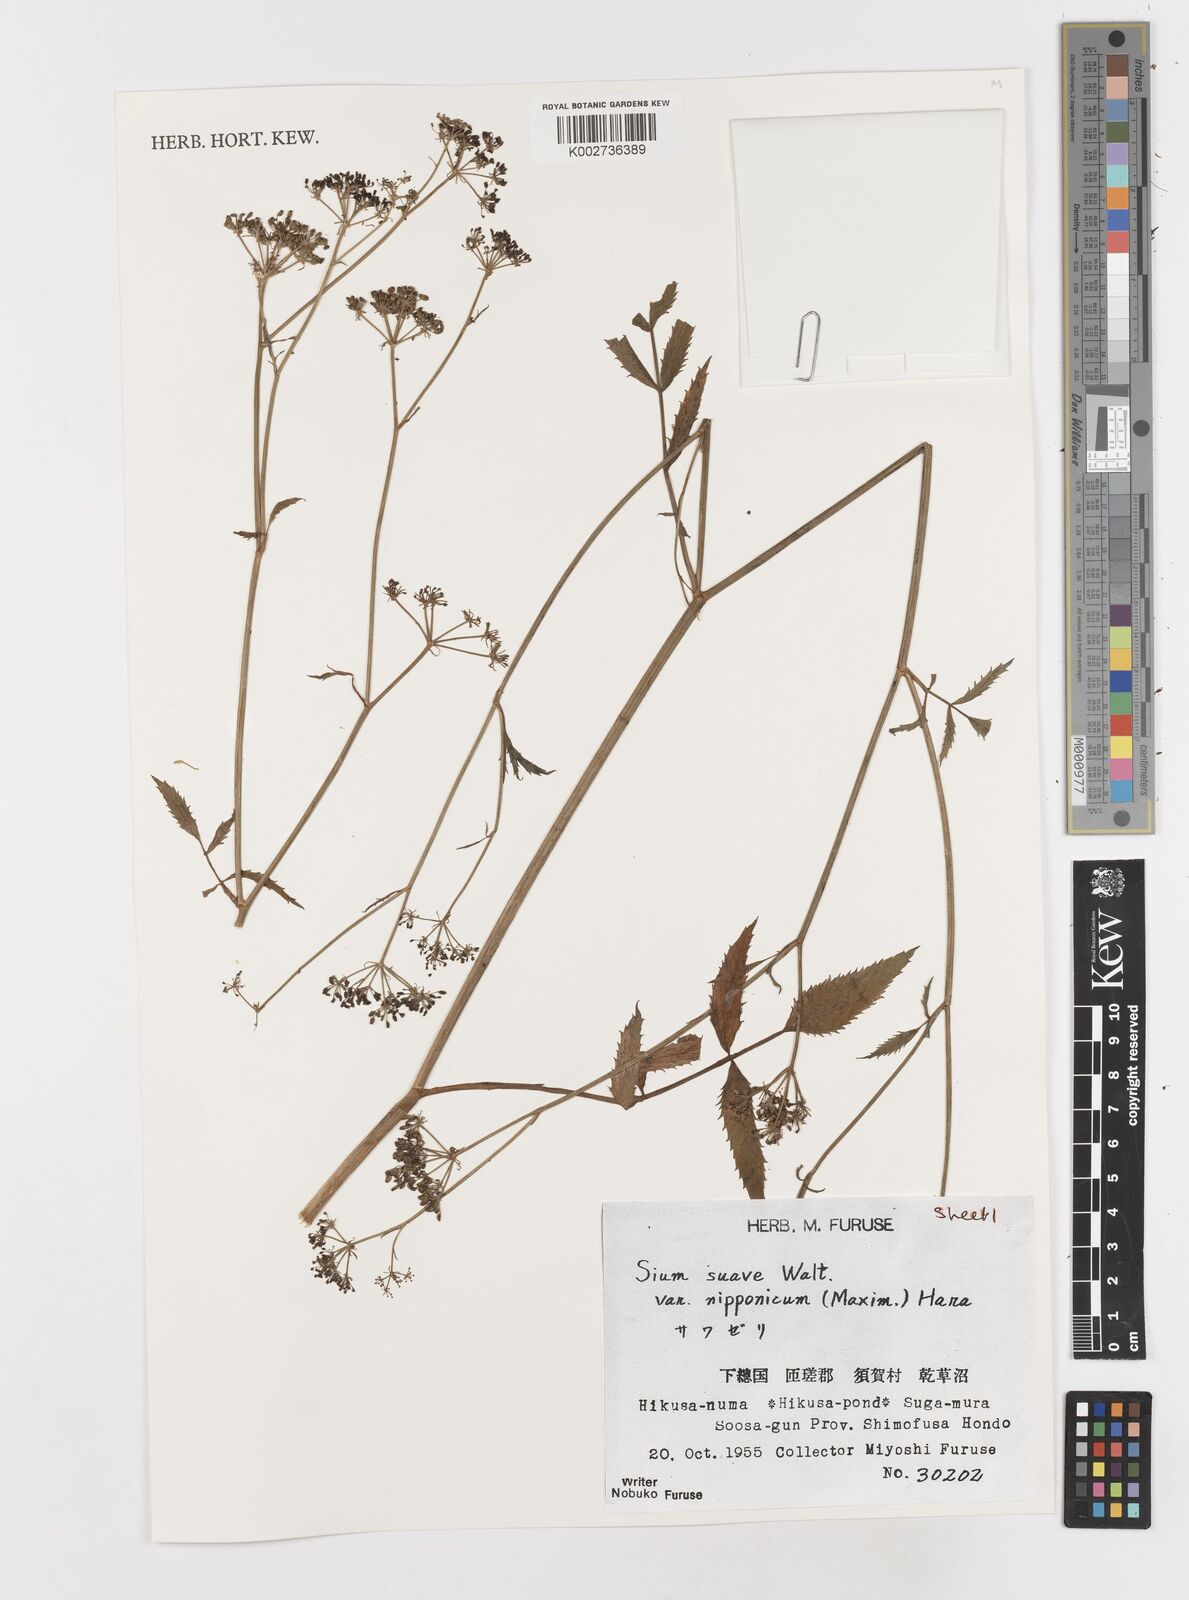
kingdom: Plantae
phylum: Tracheophyta
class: Magnoliopsida
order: Apiales
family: Apiaceae
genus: Sium
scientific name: Sium suave
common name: Hemlock water-parsnip
